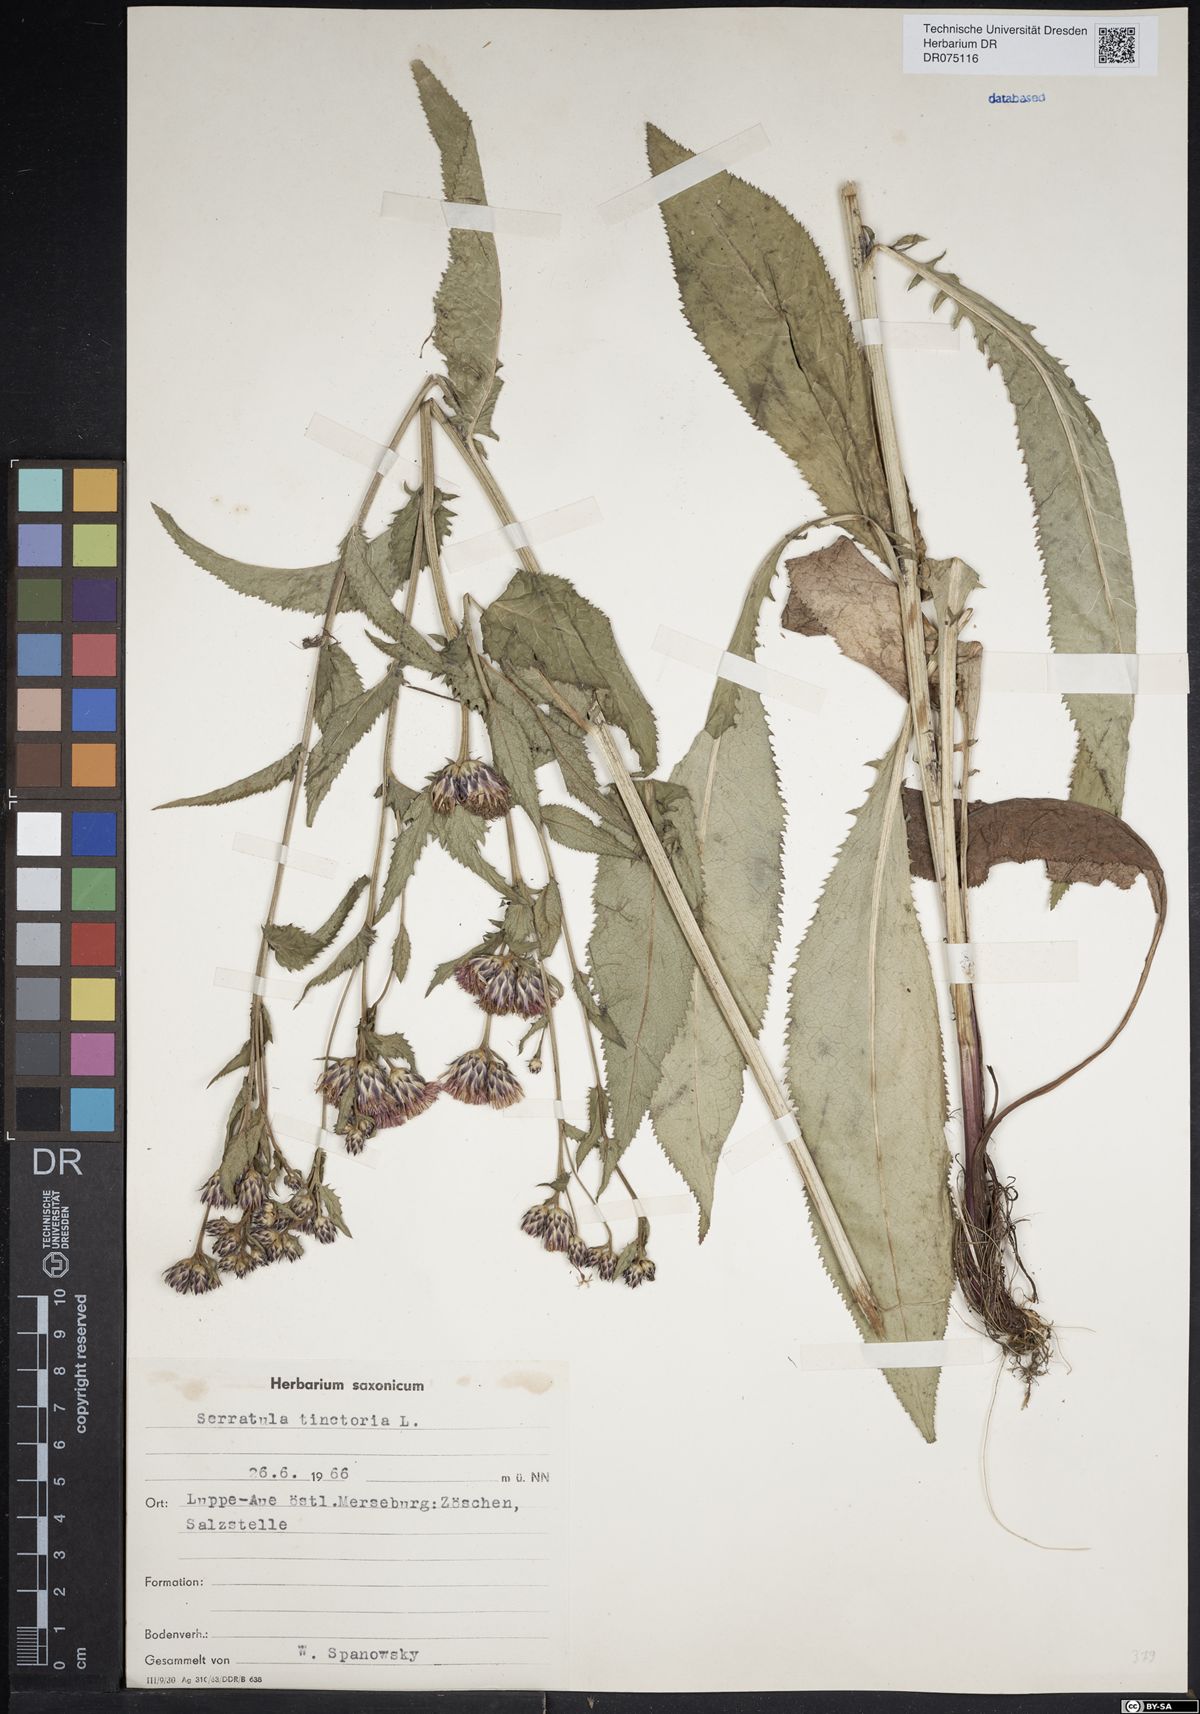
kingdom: Plantae
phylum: Tracheophyta
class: Magnoliopsida
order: Asterales
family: Asteraceae
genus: Serratula
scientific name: Serratula tinctoria
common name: Saw-wort
